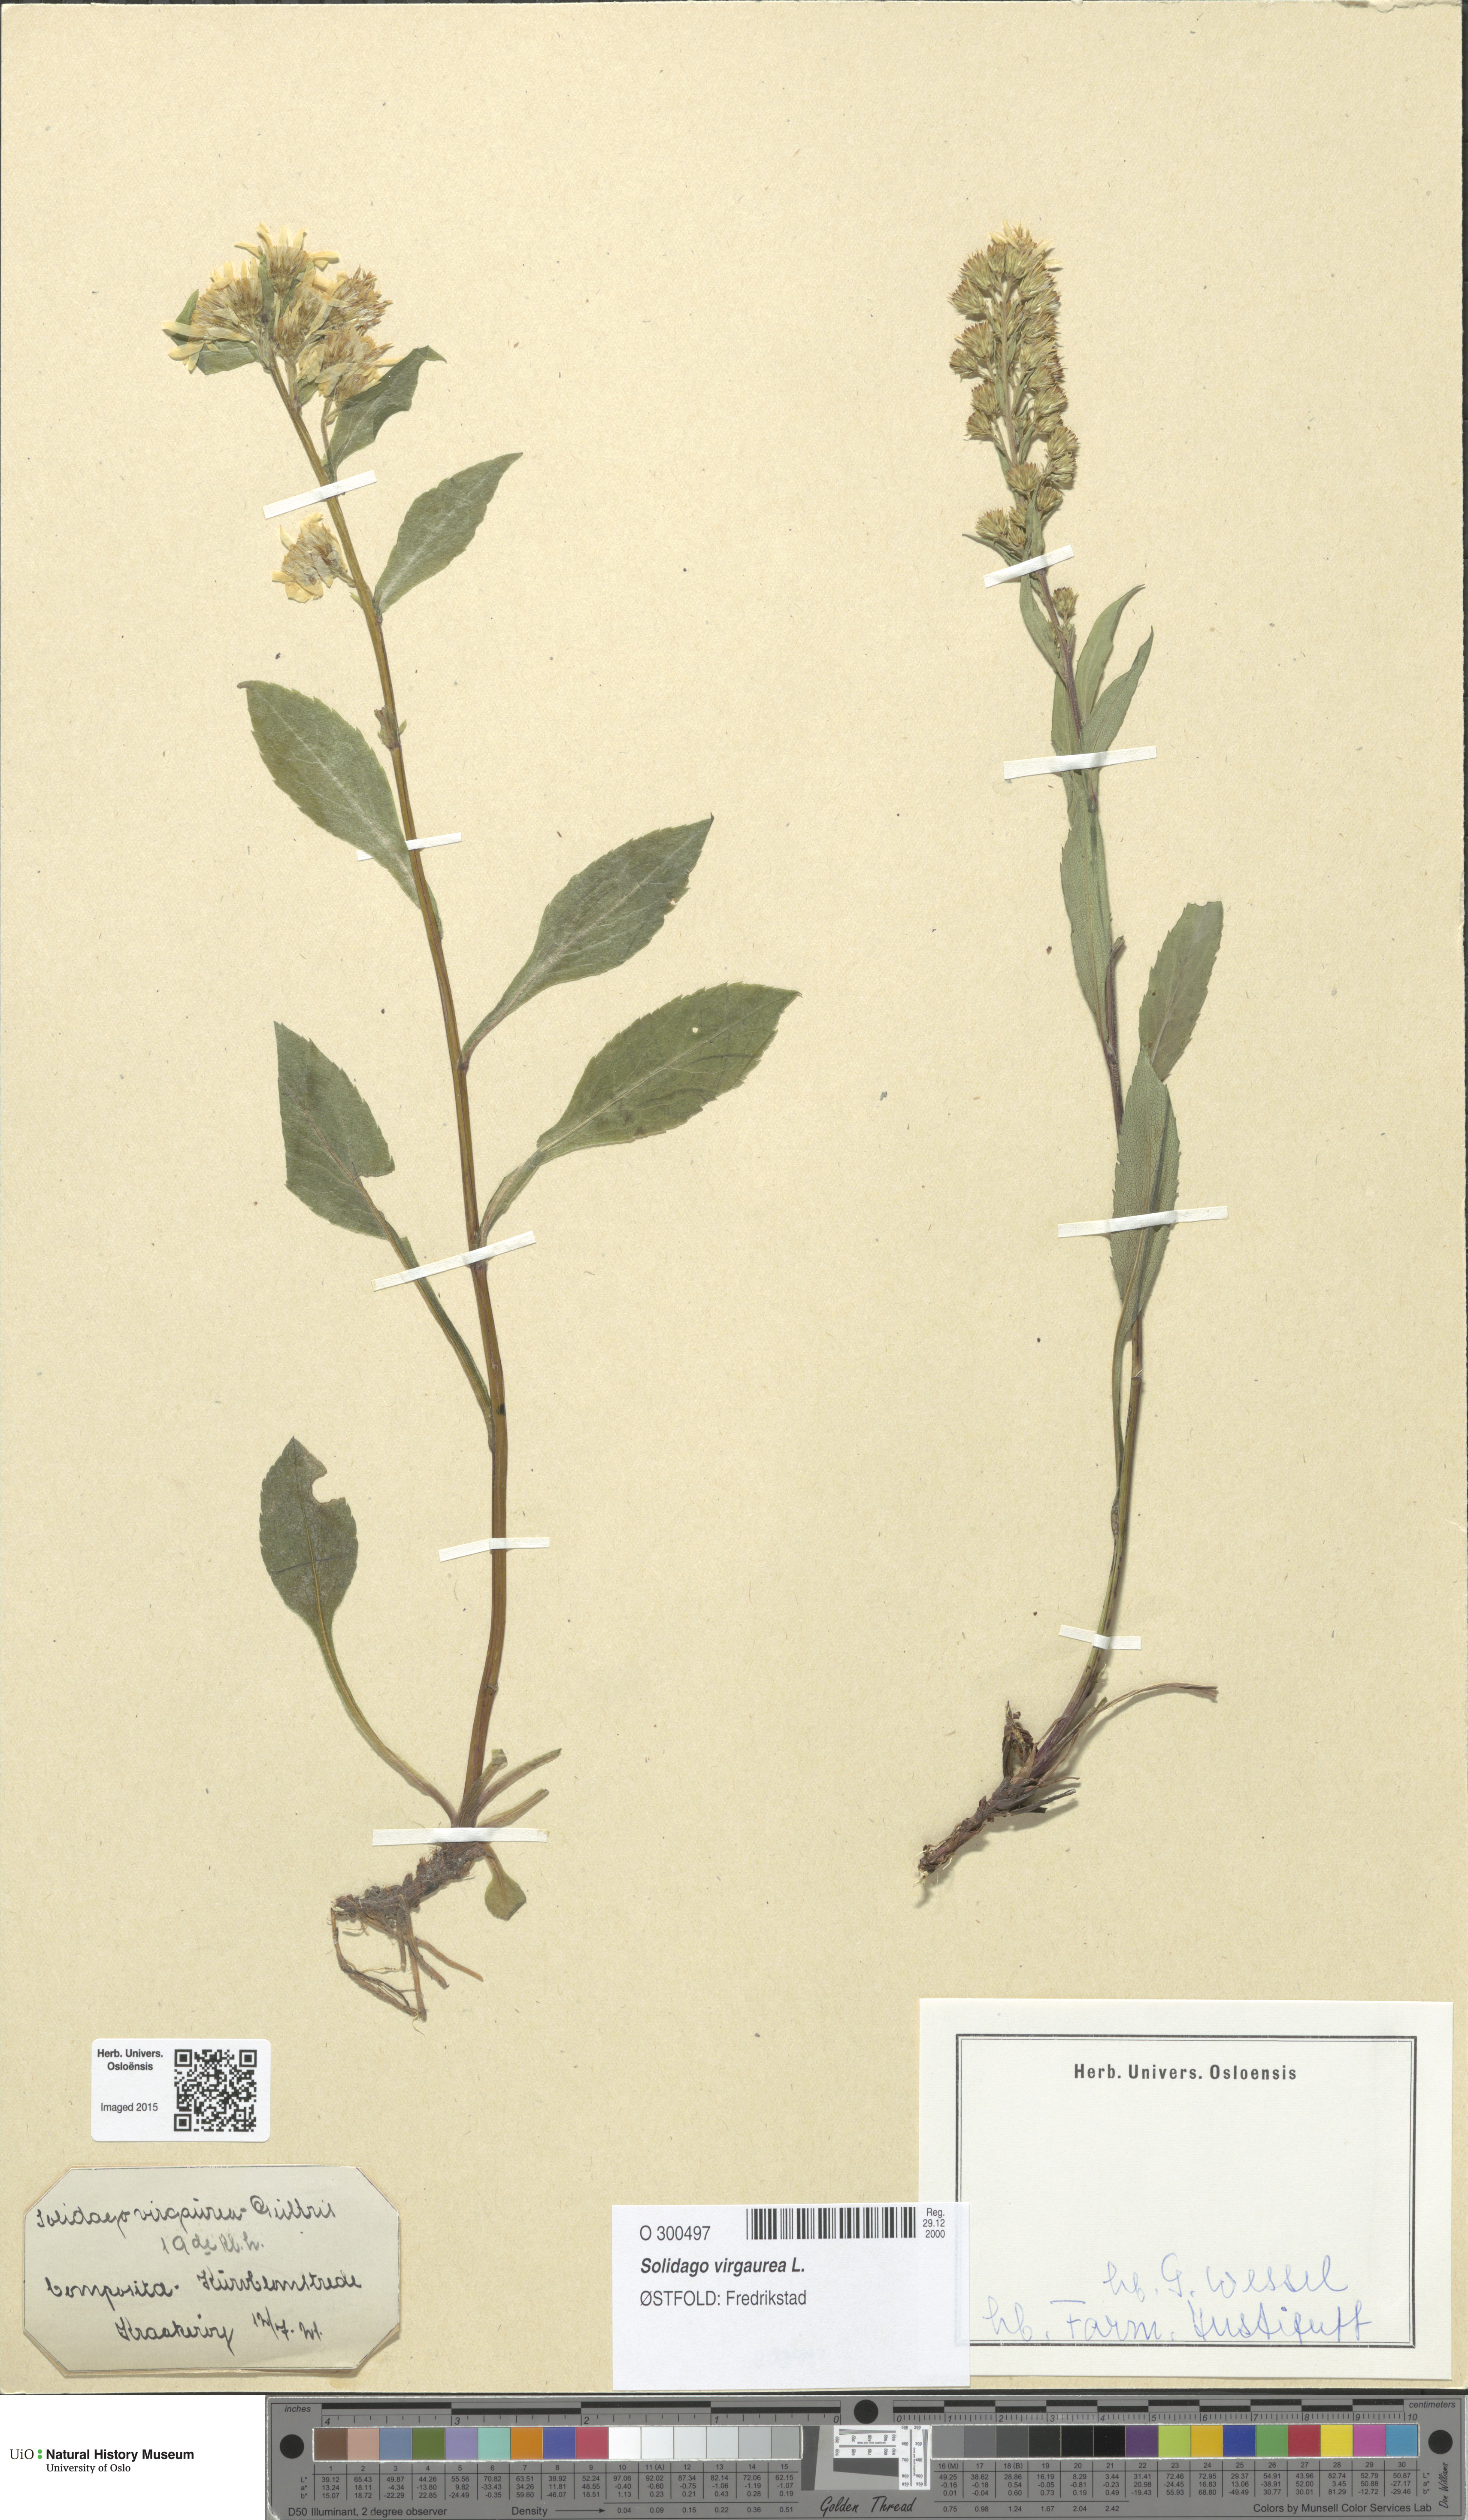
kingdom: Plantae
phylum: Tracheophyta
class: Magnoliopsida
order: Asterales
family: Asteraceae
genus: Solidago
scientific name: Solidago virgaurea
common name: Goldenrod
